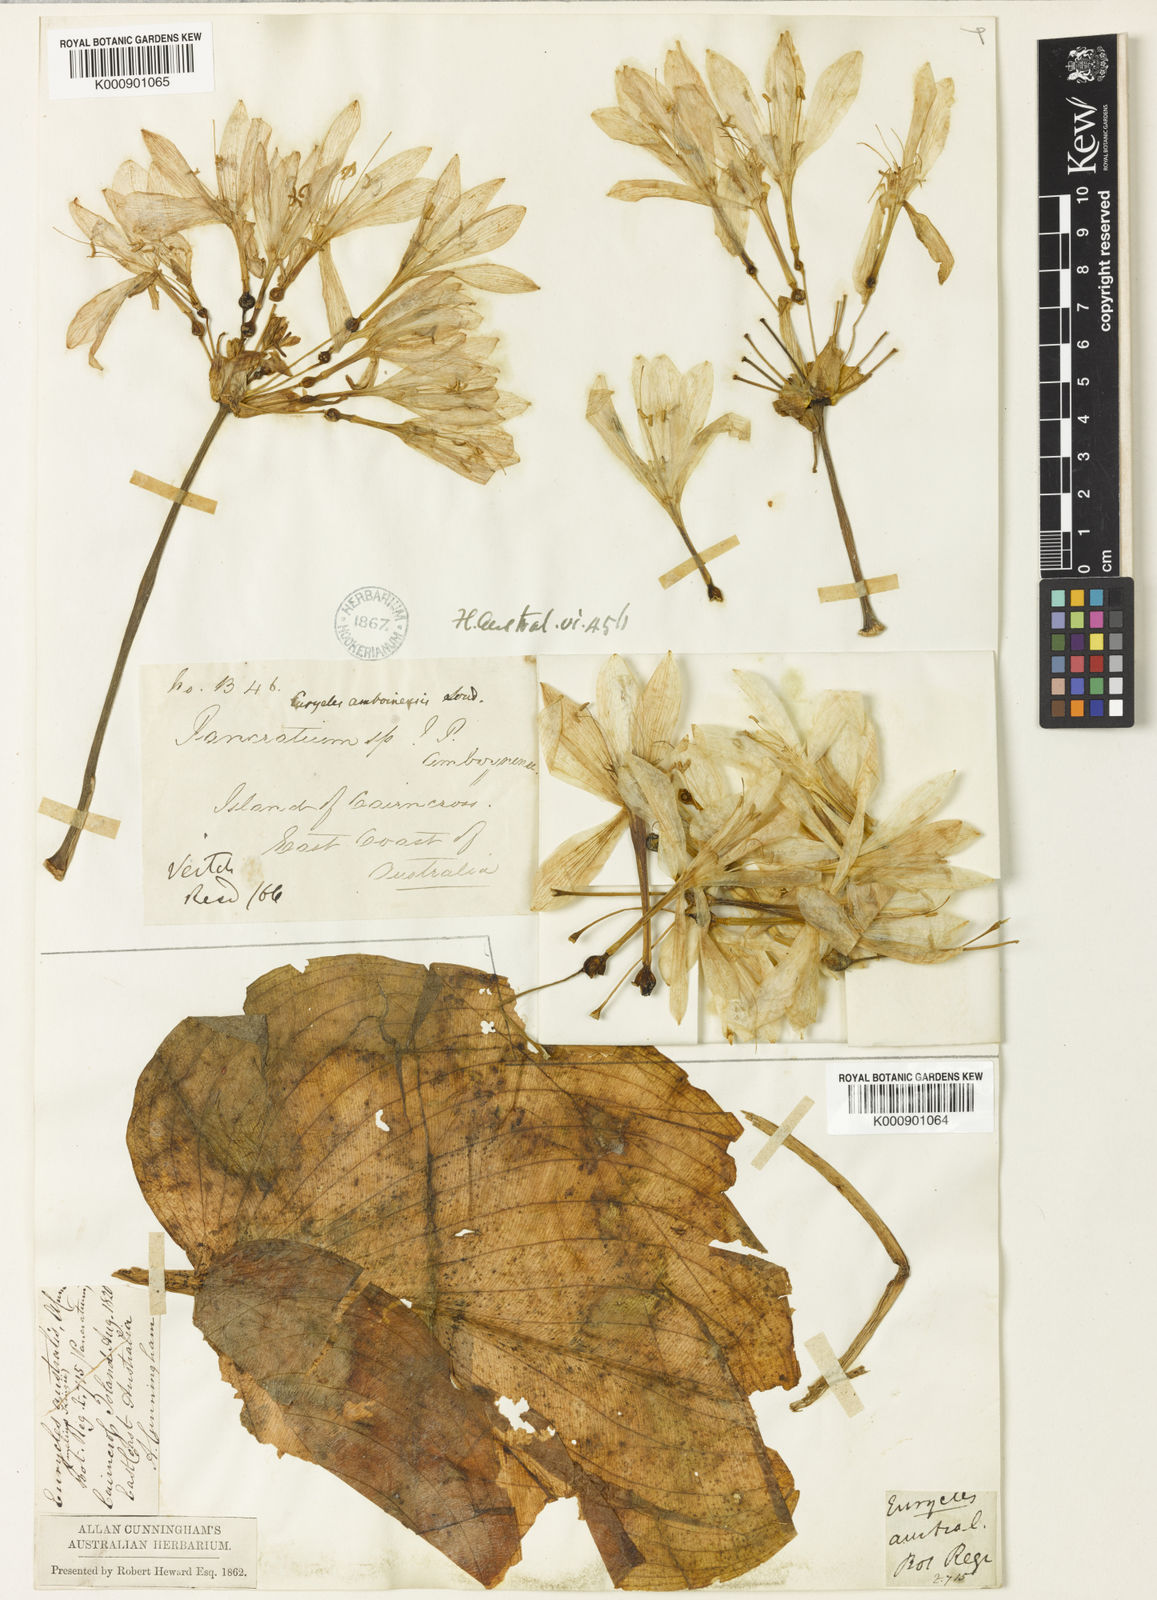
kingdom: Plantae
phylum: Tracheophyta
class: Liliopsida
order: Asparagales
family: Amaryllidaceae
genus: Proiphys
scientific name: Proiphys amboinensis
